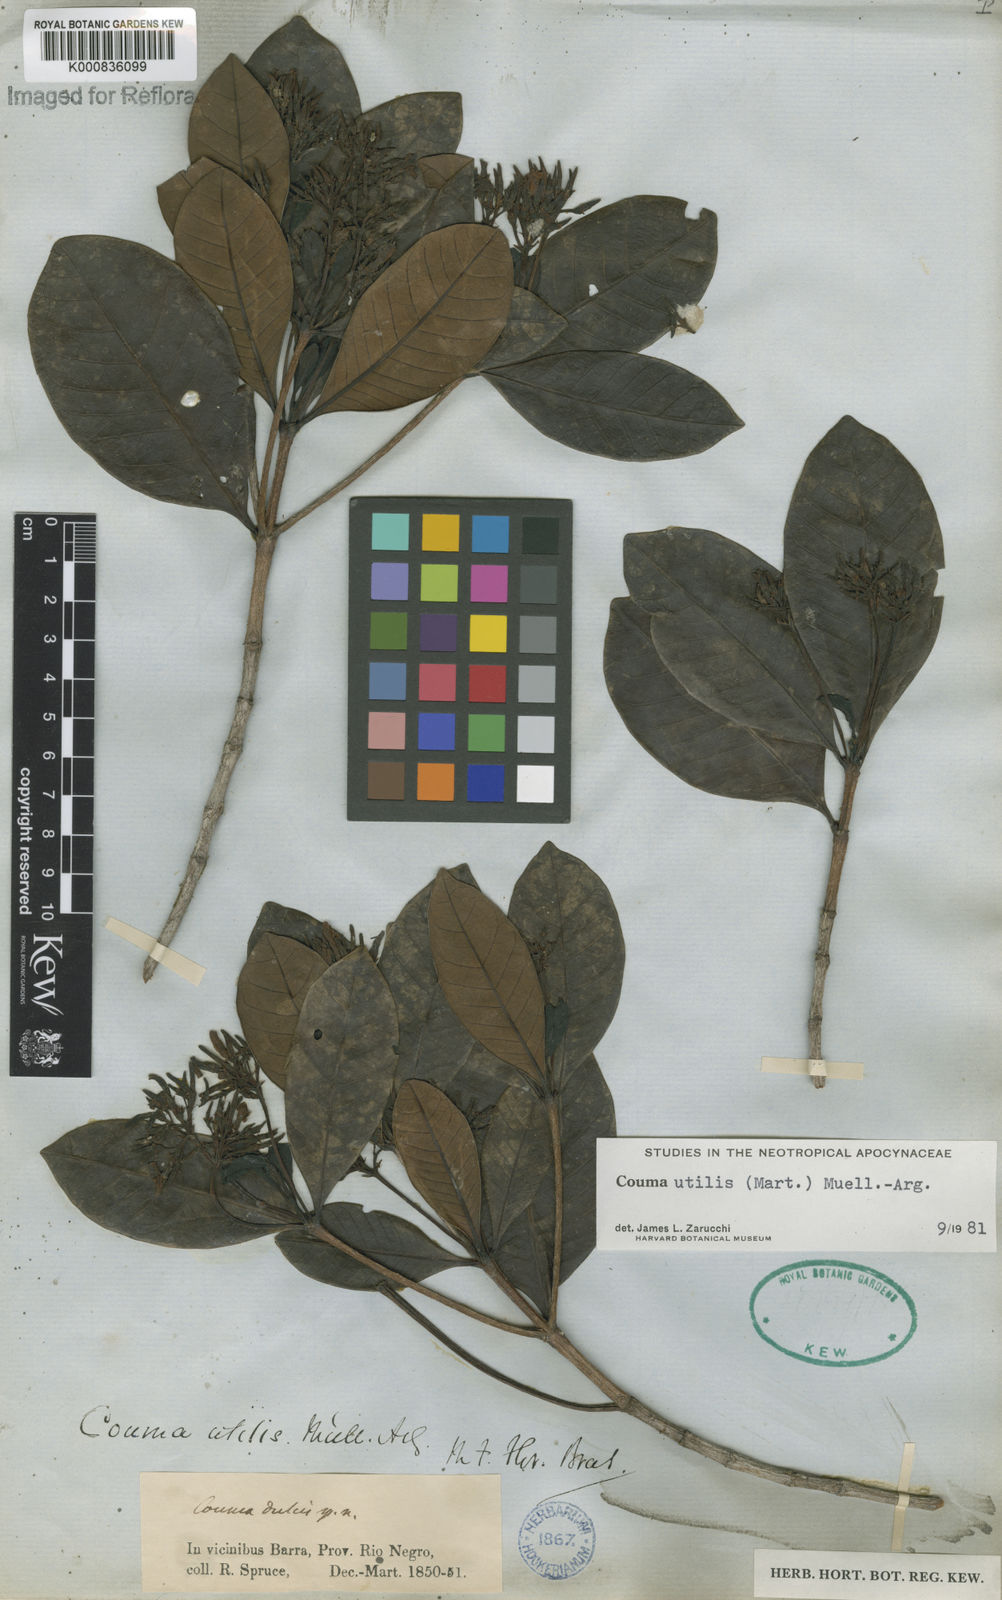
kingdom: Plantae
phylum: Tracheophyta
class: Magnoliopsida
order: Gentianales
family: Apocynaceae
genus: Couma
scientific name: Couma
